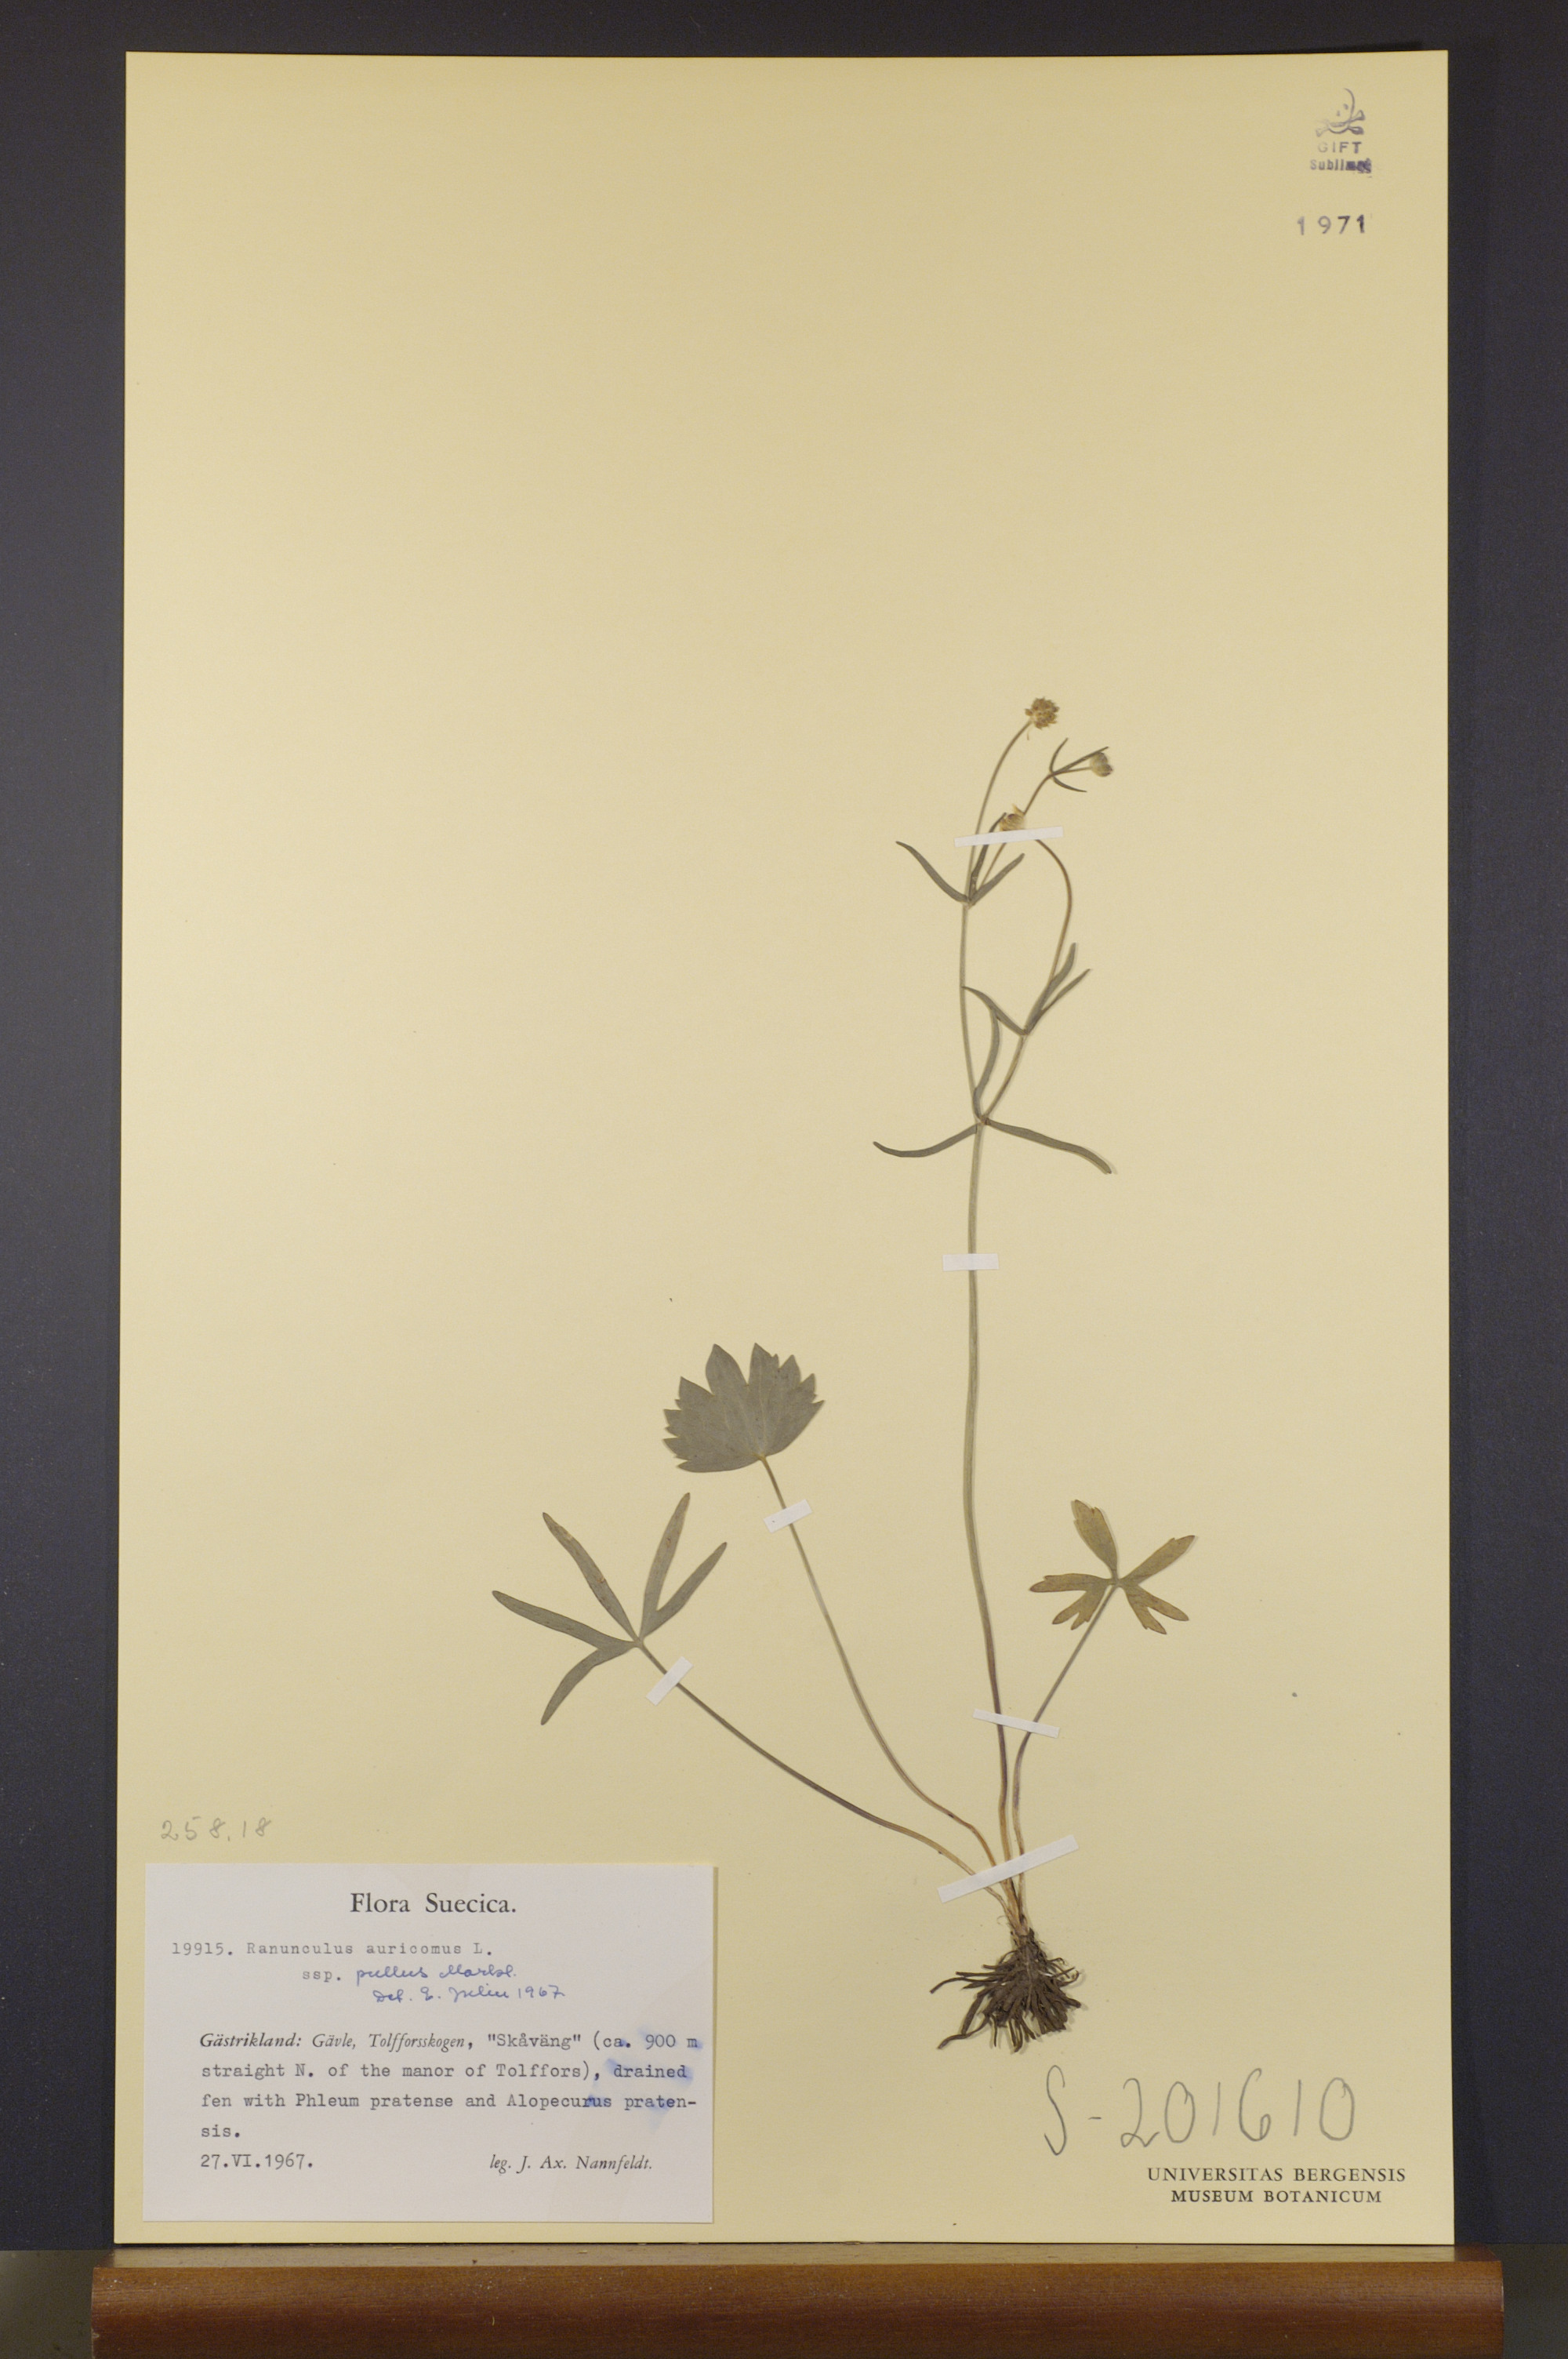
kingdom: Plantae
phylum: Tracheophyta
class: Magnoliopsida
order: Ranunculales
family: Ranunculaceae
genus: Ranunculus
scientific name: Ranunculus pullus
